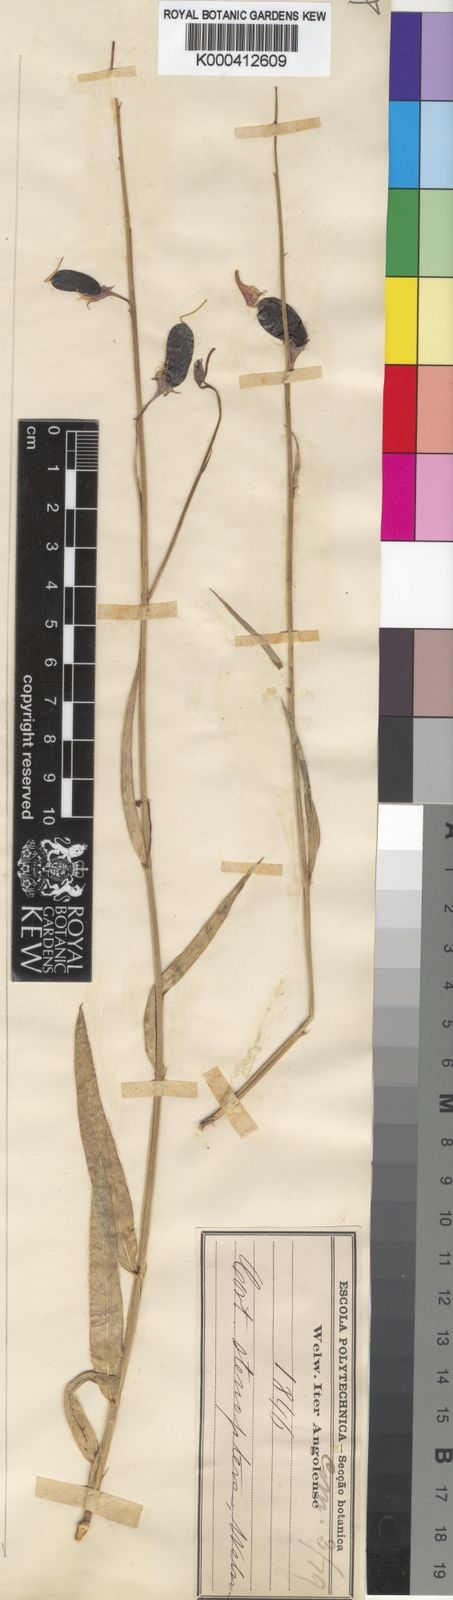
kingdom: Plantae
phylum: Tracheophyta
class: Magnoliopsida
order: Fabales
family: Fabaceae
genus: Crotalaria
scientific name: Crotalaria stenoptera
